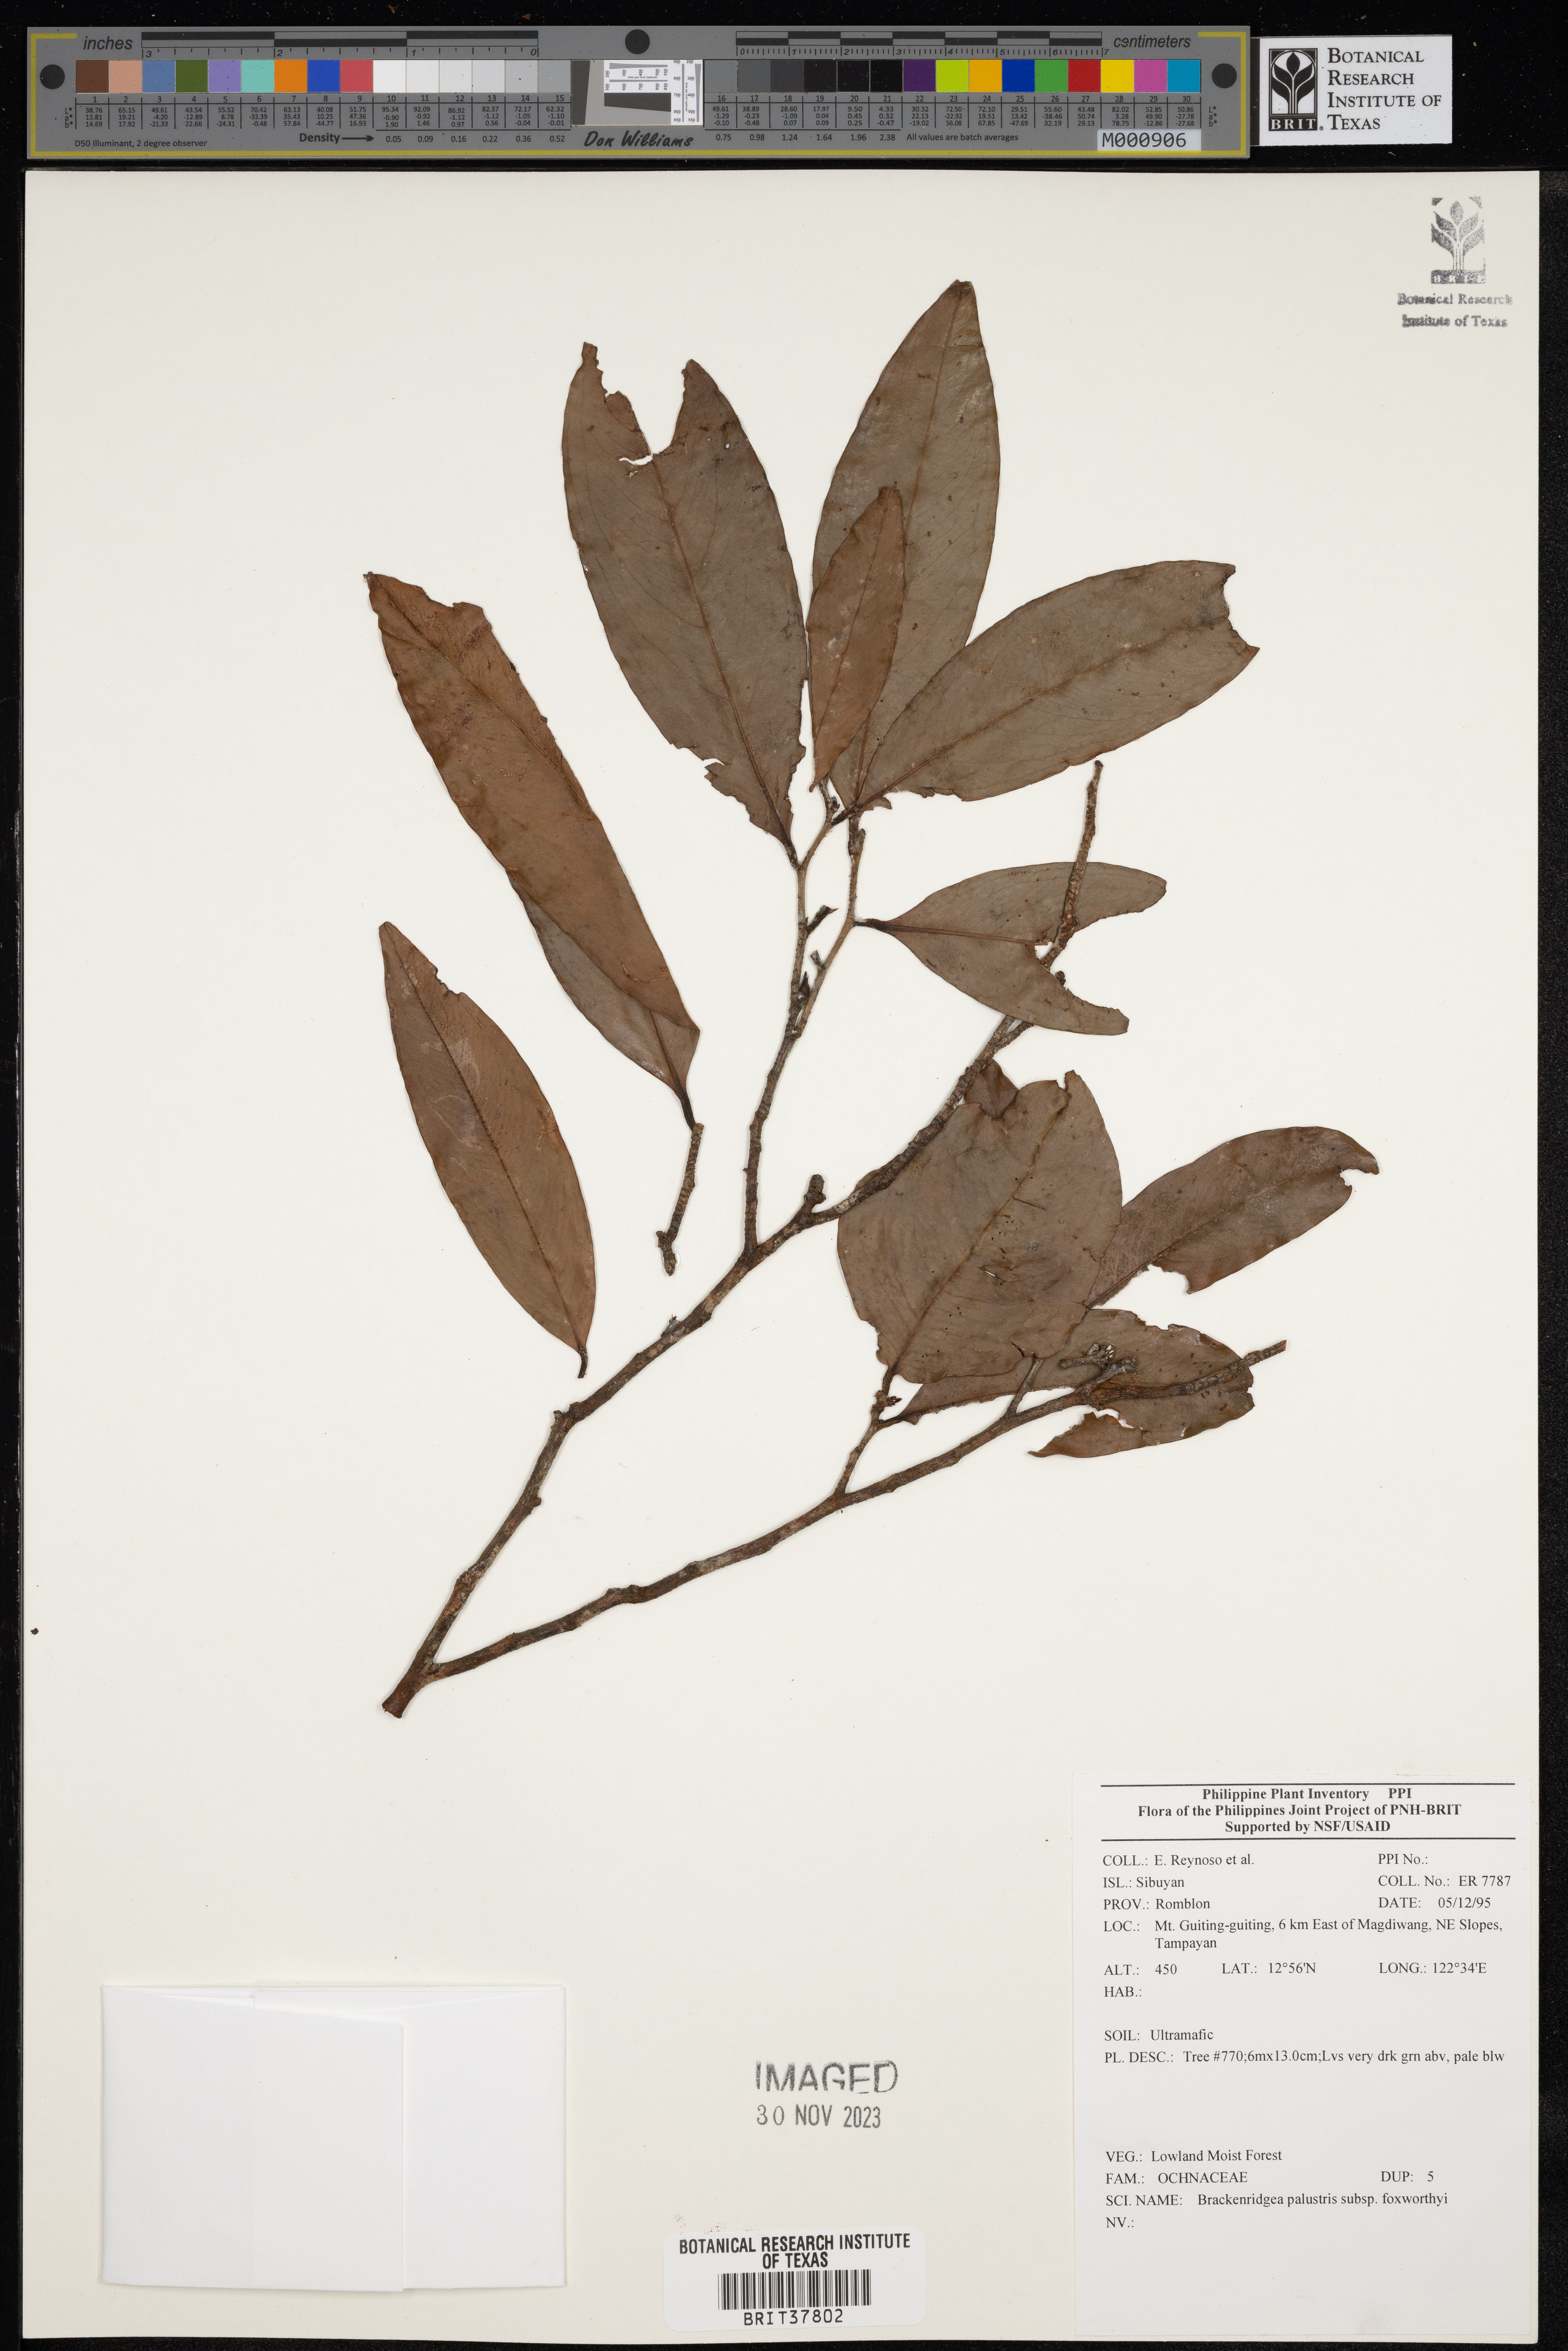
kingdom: Plantae
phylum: Tracheophyta
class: Magnoliopsida
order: Malpighiales
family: Ochnaceae
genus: Brackenridgea
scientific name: Brackenridgea
